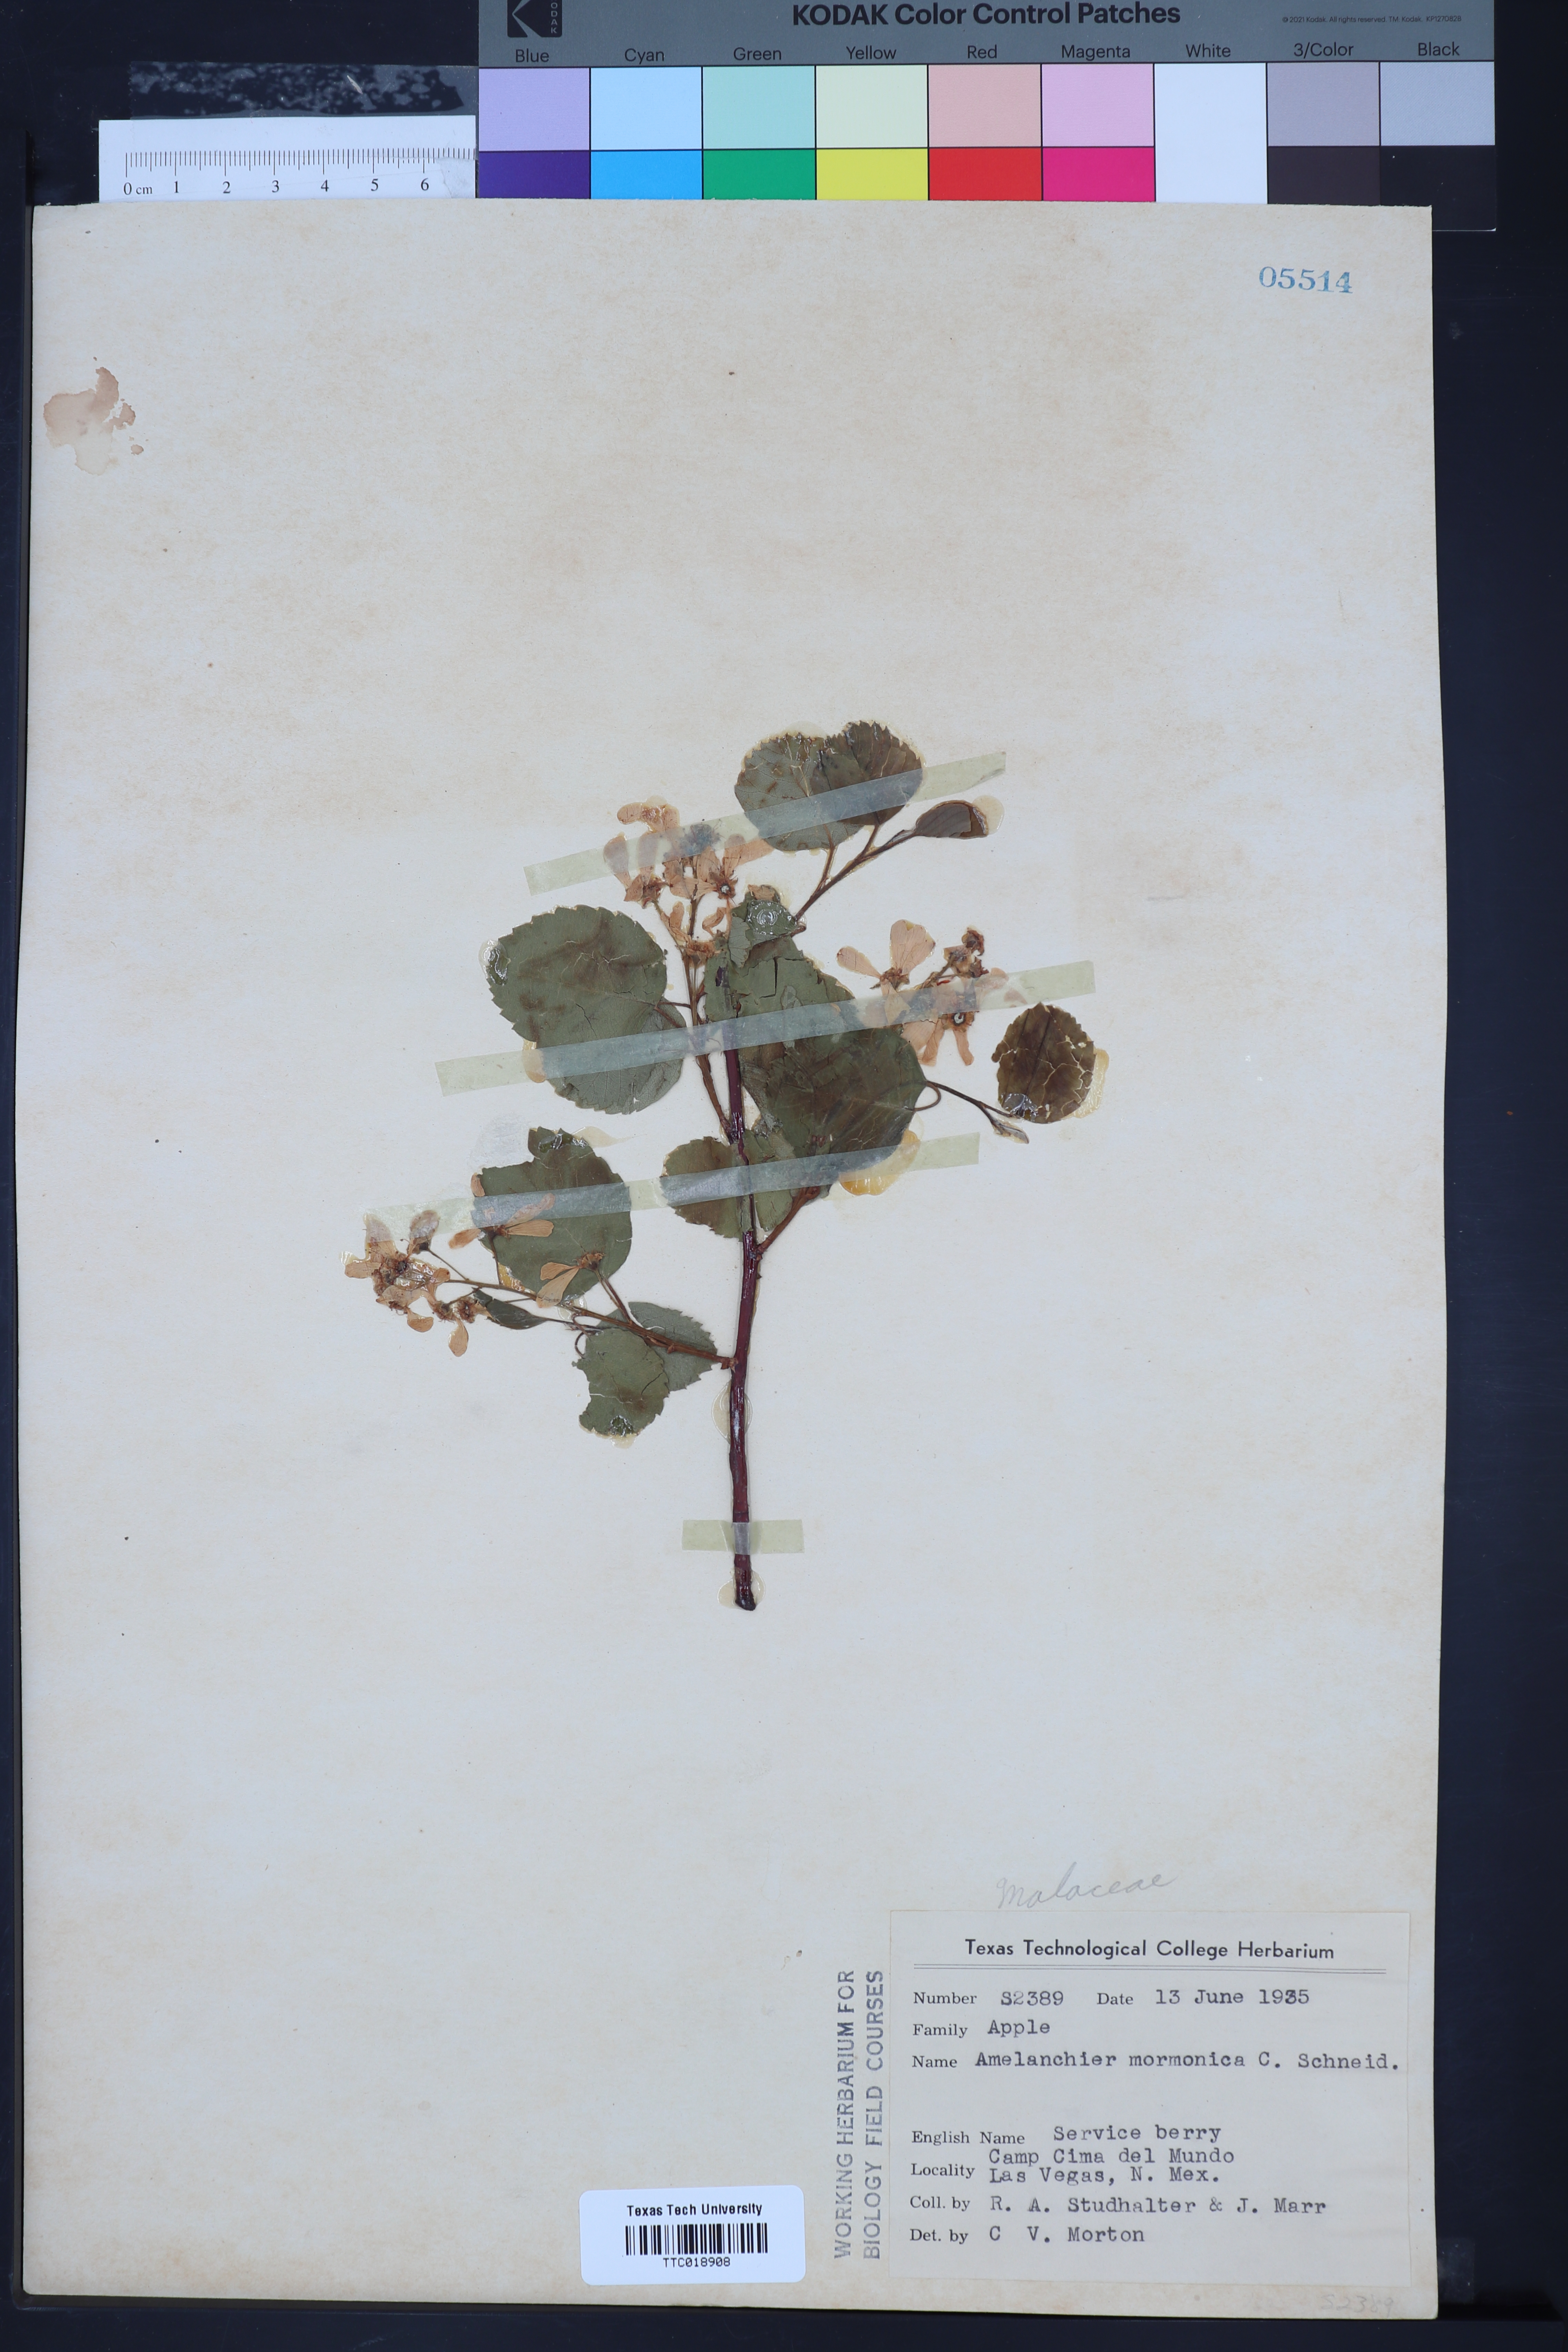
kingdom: Plantae
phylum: Tracheophyta
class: Magnoliopsida
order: Rosales
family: Rosaceae
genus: Amelanchier
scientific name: Amelanchier utahensis
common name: Utah serviceberry
